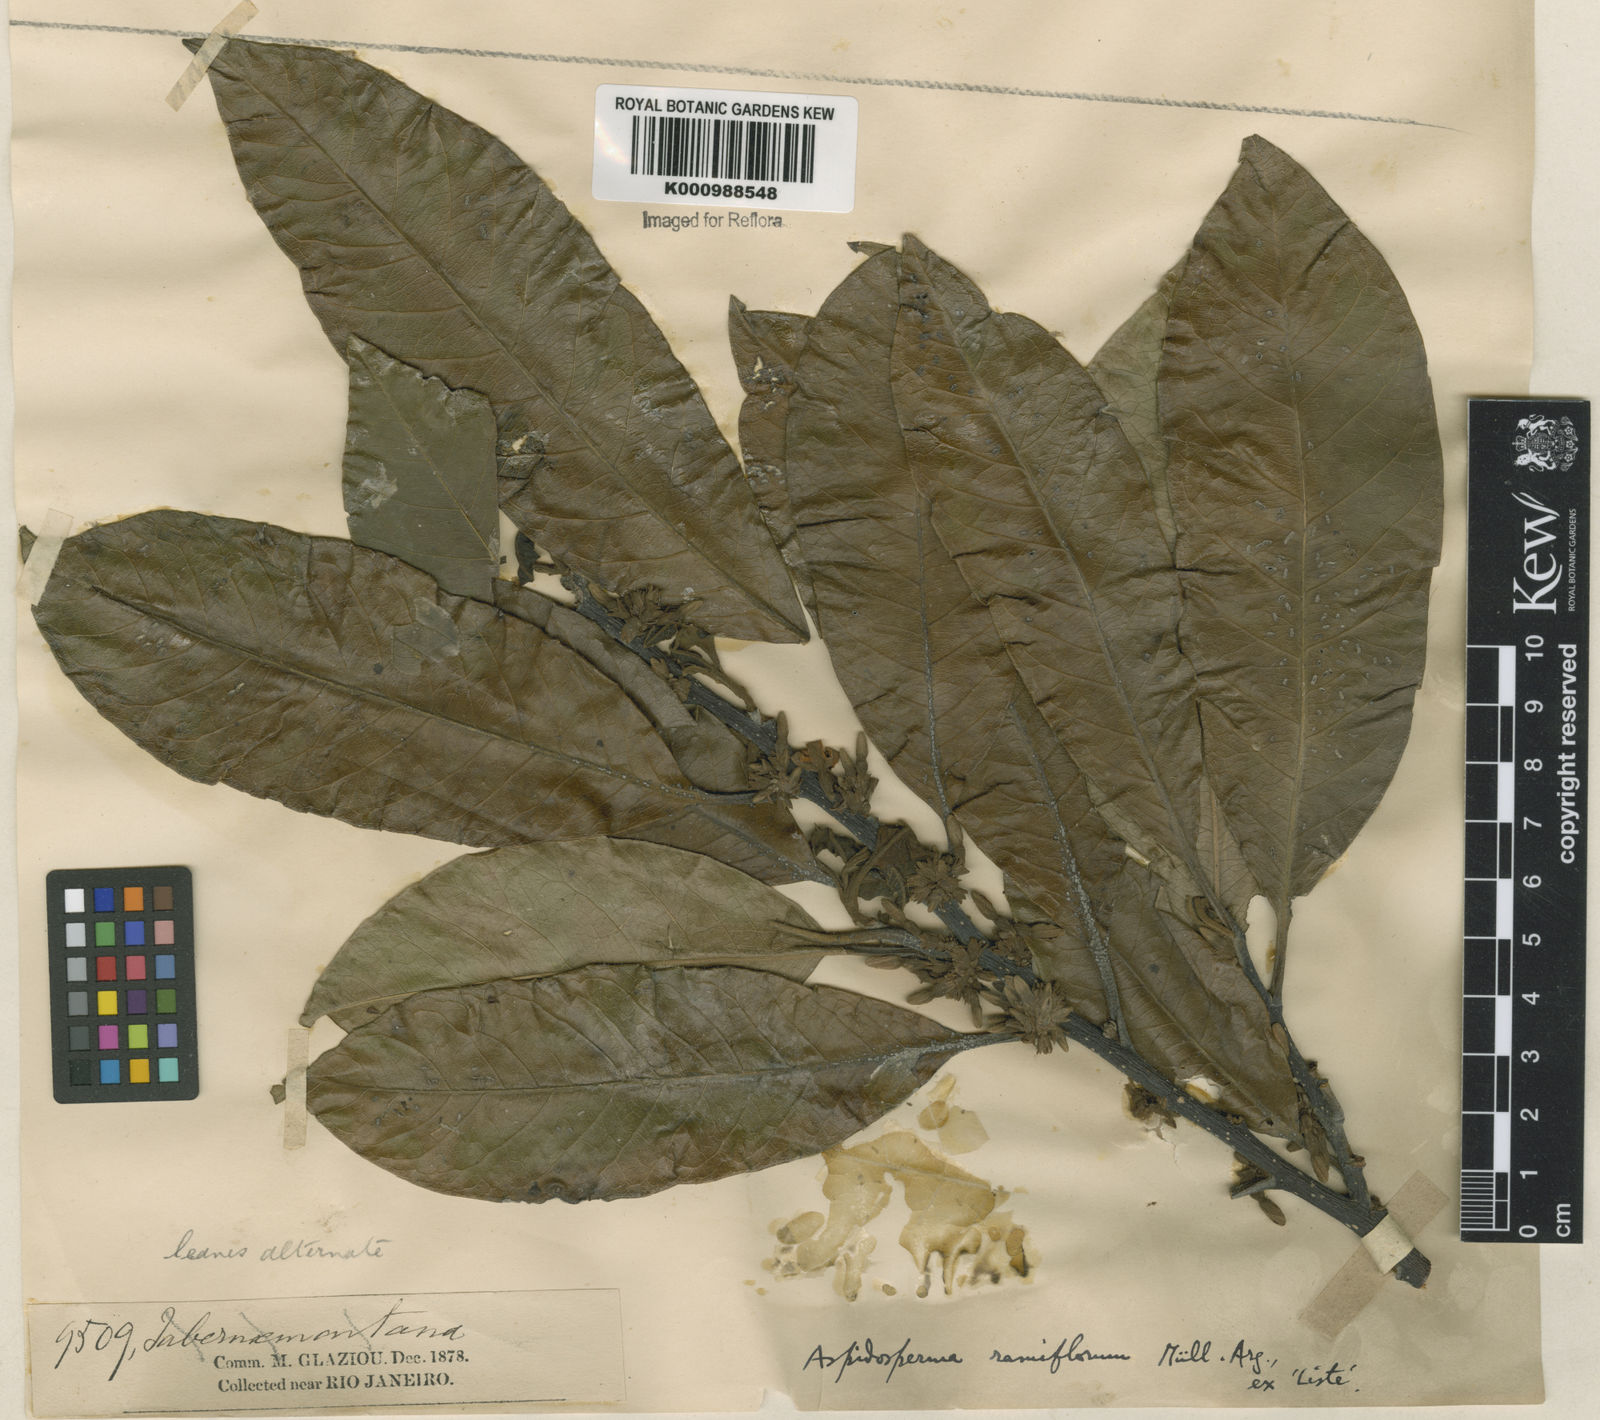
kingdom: Plantae
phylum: Tracheophyta
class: Magnoliopsida
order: Gentianales
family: Apocynaceae
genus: Aspidosperma
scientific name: Aspidosperma
